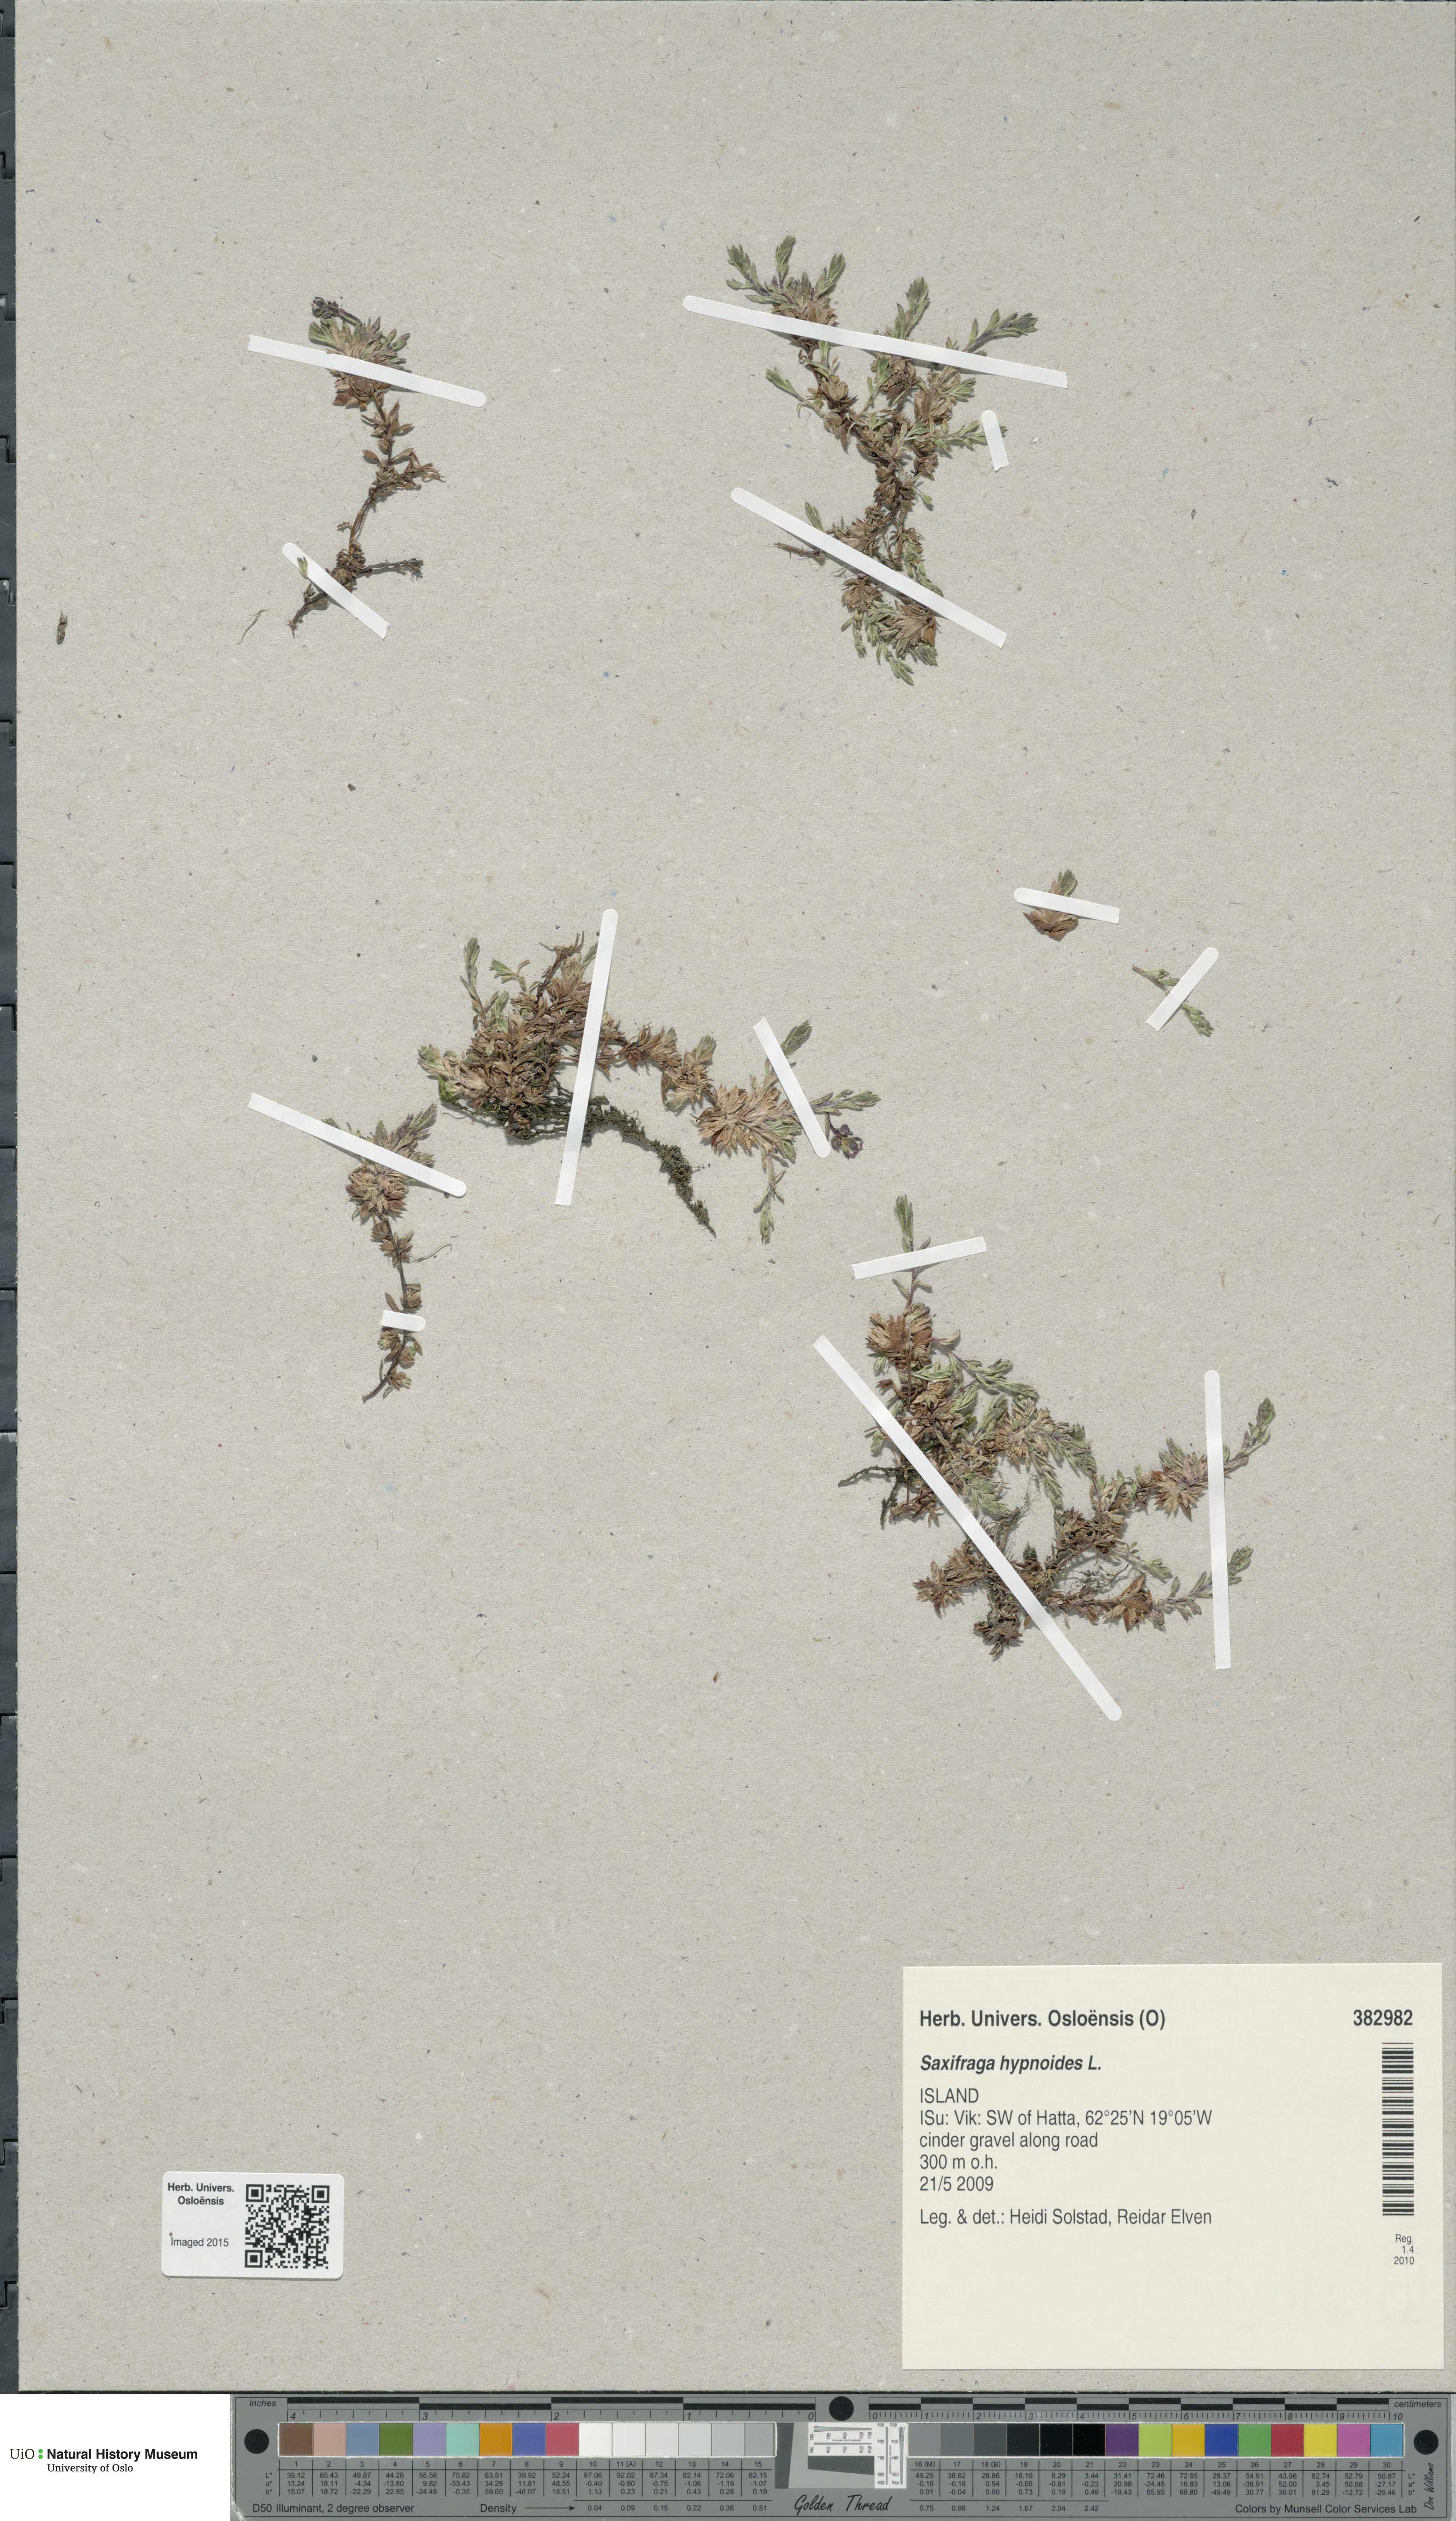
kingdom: Plantae
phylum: Tracheophyta
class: Magnoliopsida
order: Saxifragales
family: Saxifragaceae
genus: Saxifraga
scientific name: Saxifraga hypnoides
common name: Mossy saxifrage
